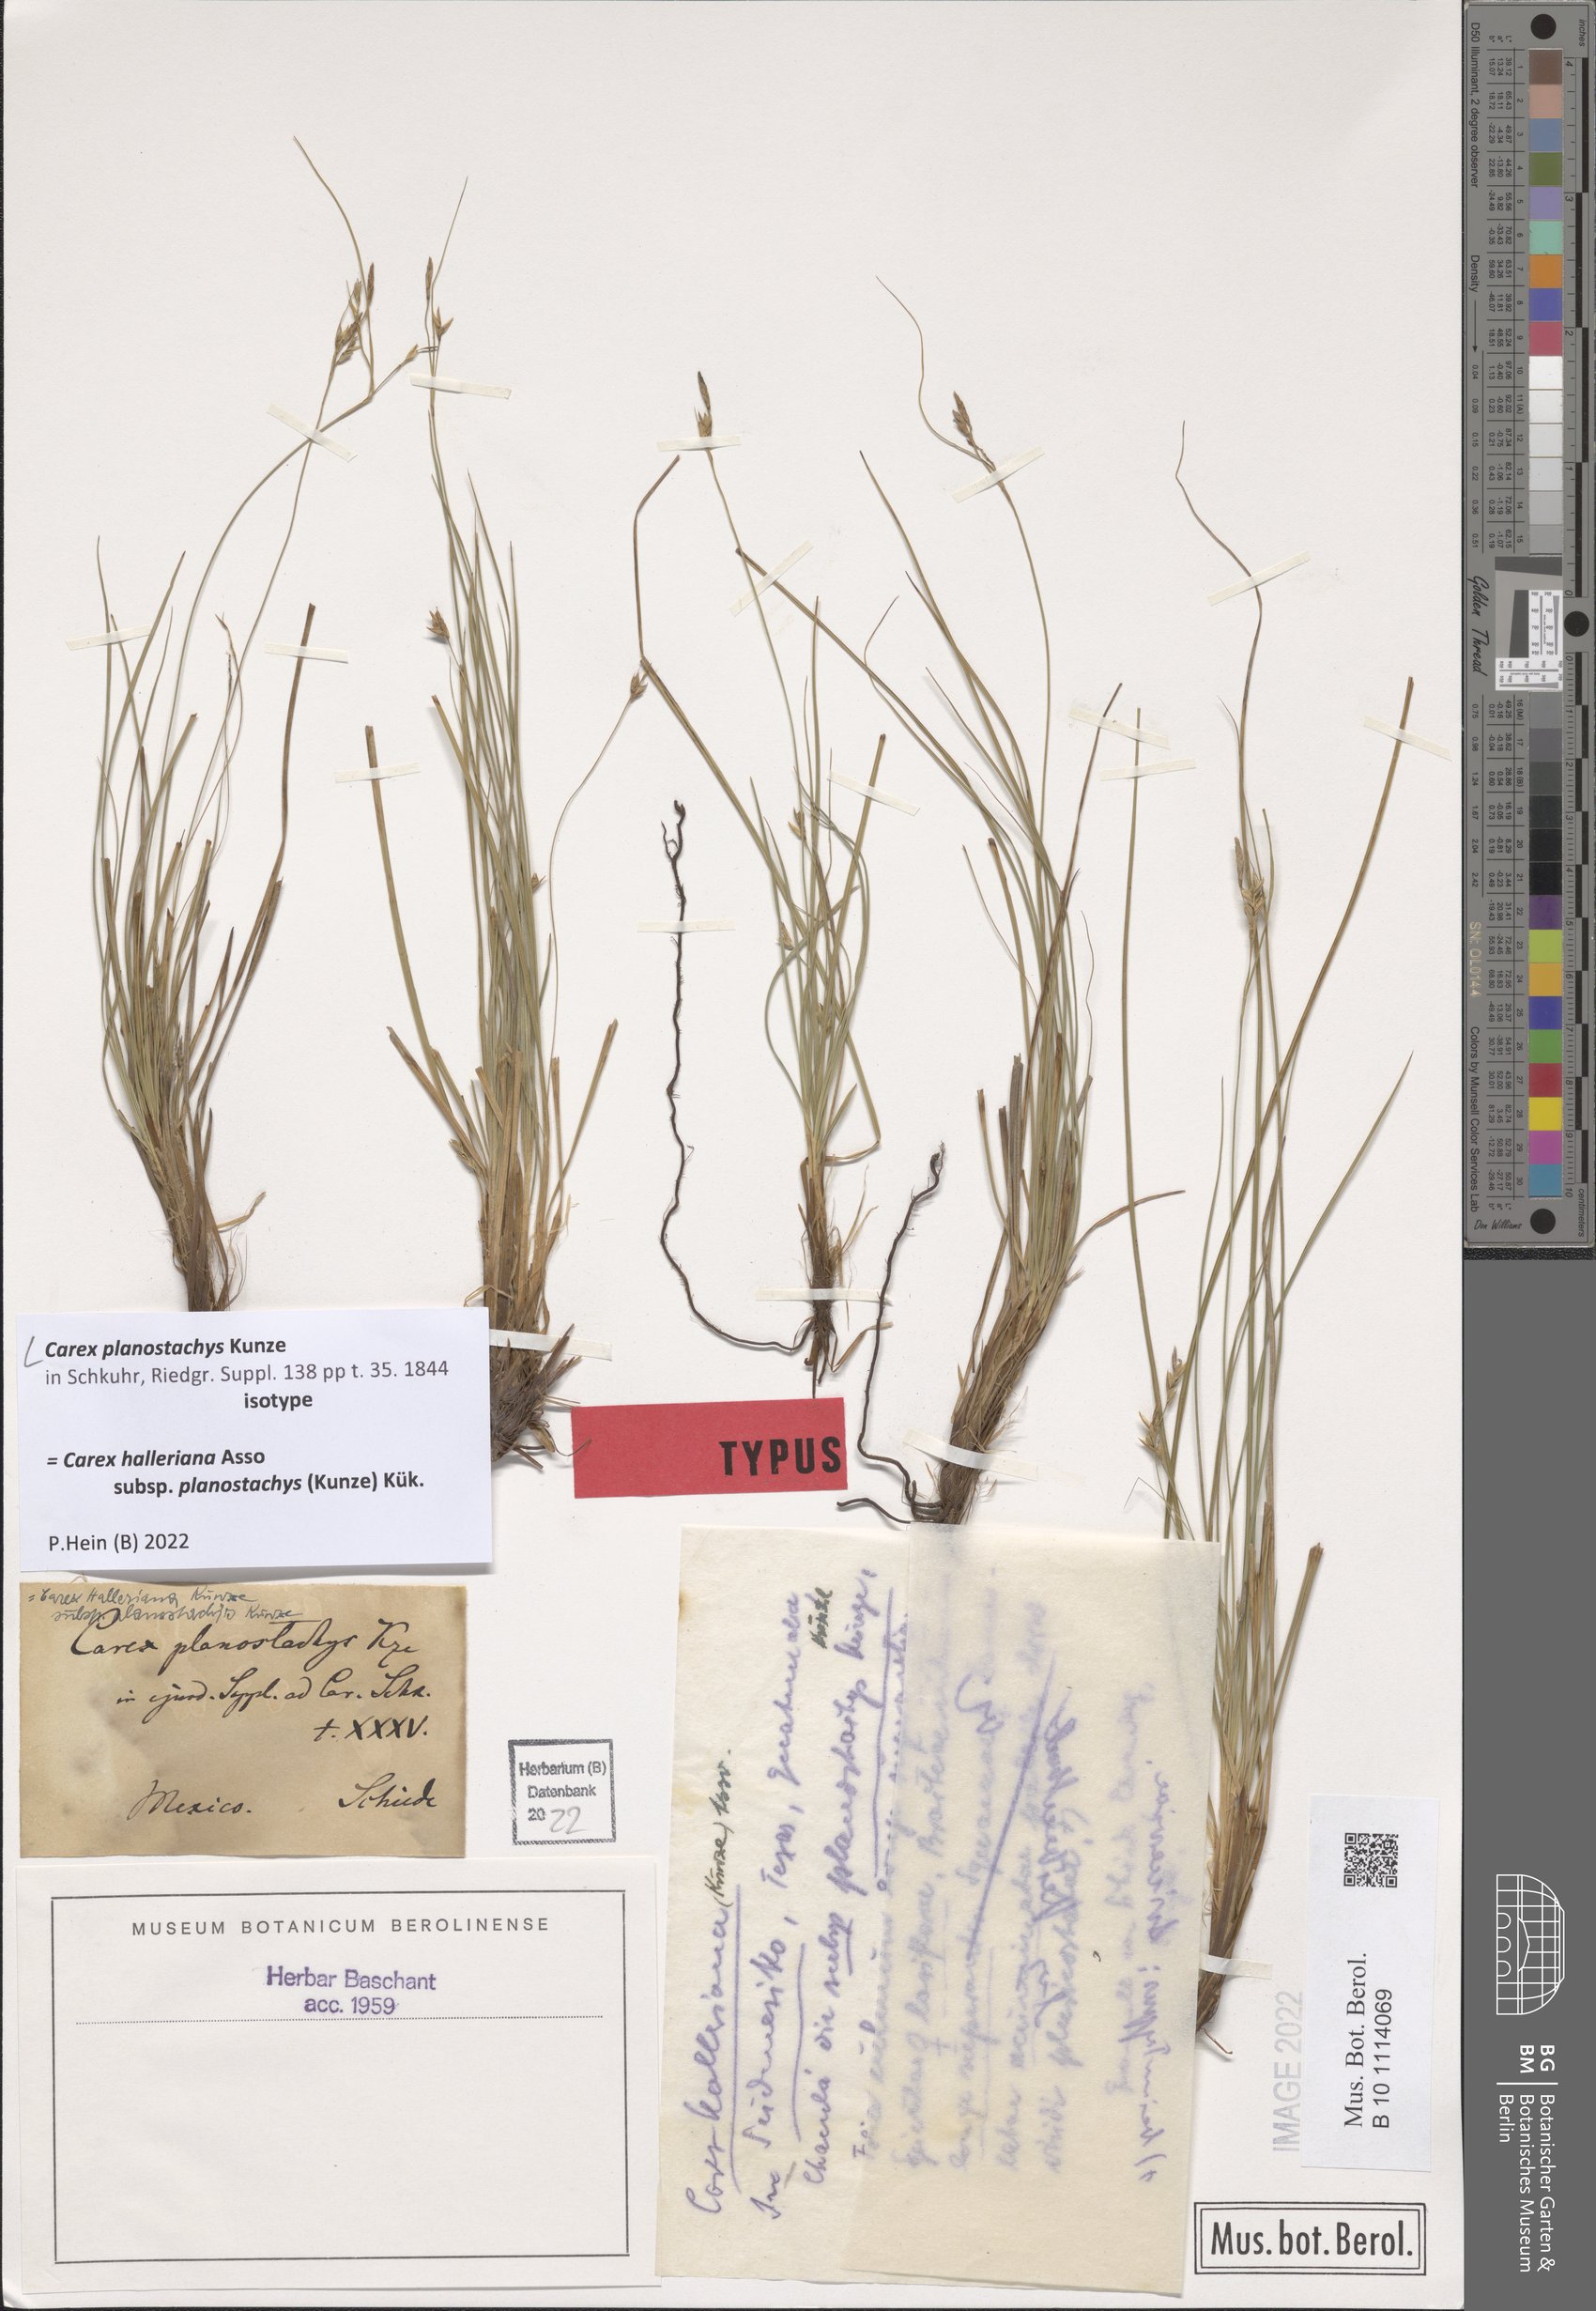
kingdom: Plantae
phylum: Tracheophyta
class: Liliopsida
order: Poales
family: Cyperaceae
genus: Carex
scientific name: Carex planostachys
